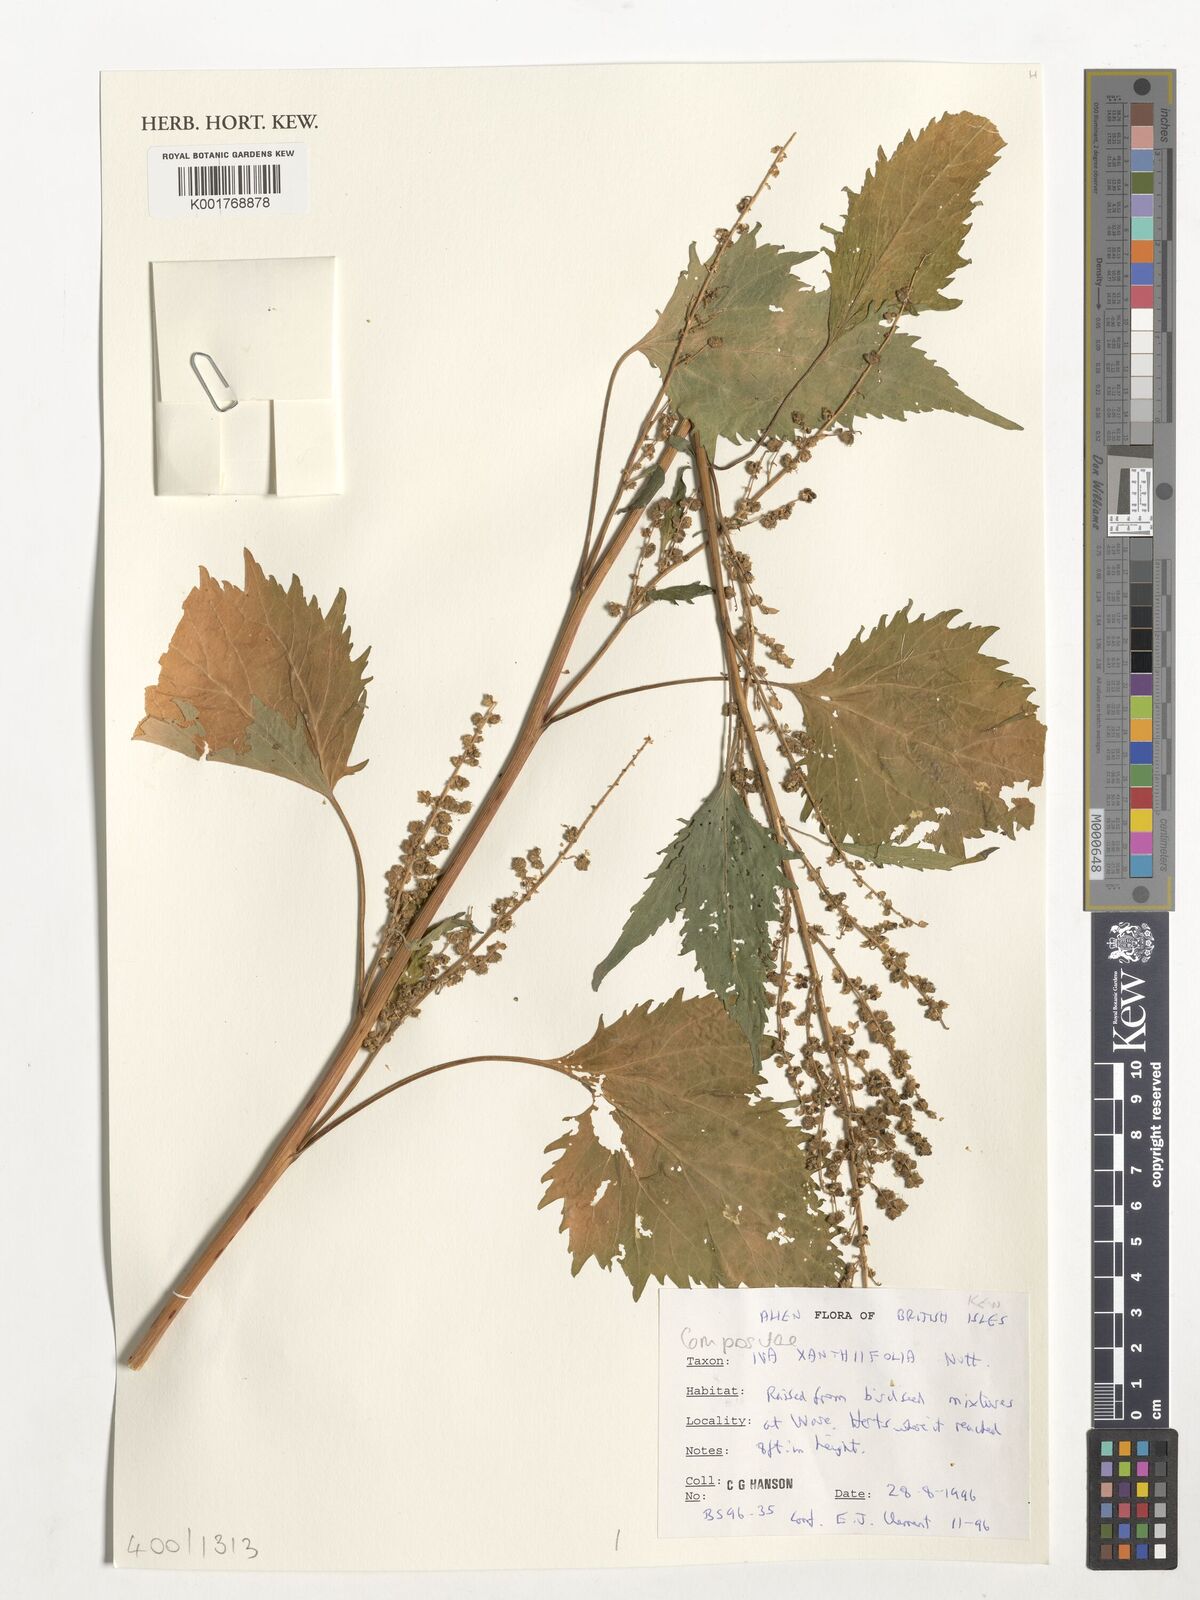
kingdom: Plantae
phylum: Tracheophyta
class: Magnoliopsida
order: Asterales
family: Asteraceae
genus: Iva
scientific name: Iva
